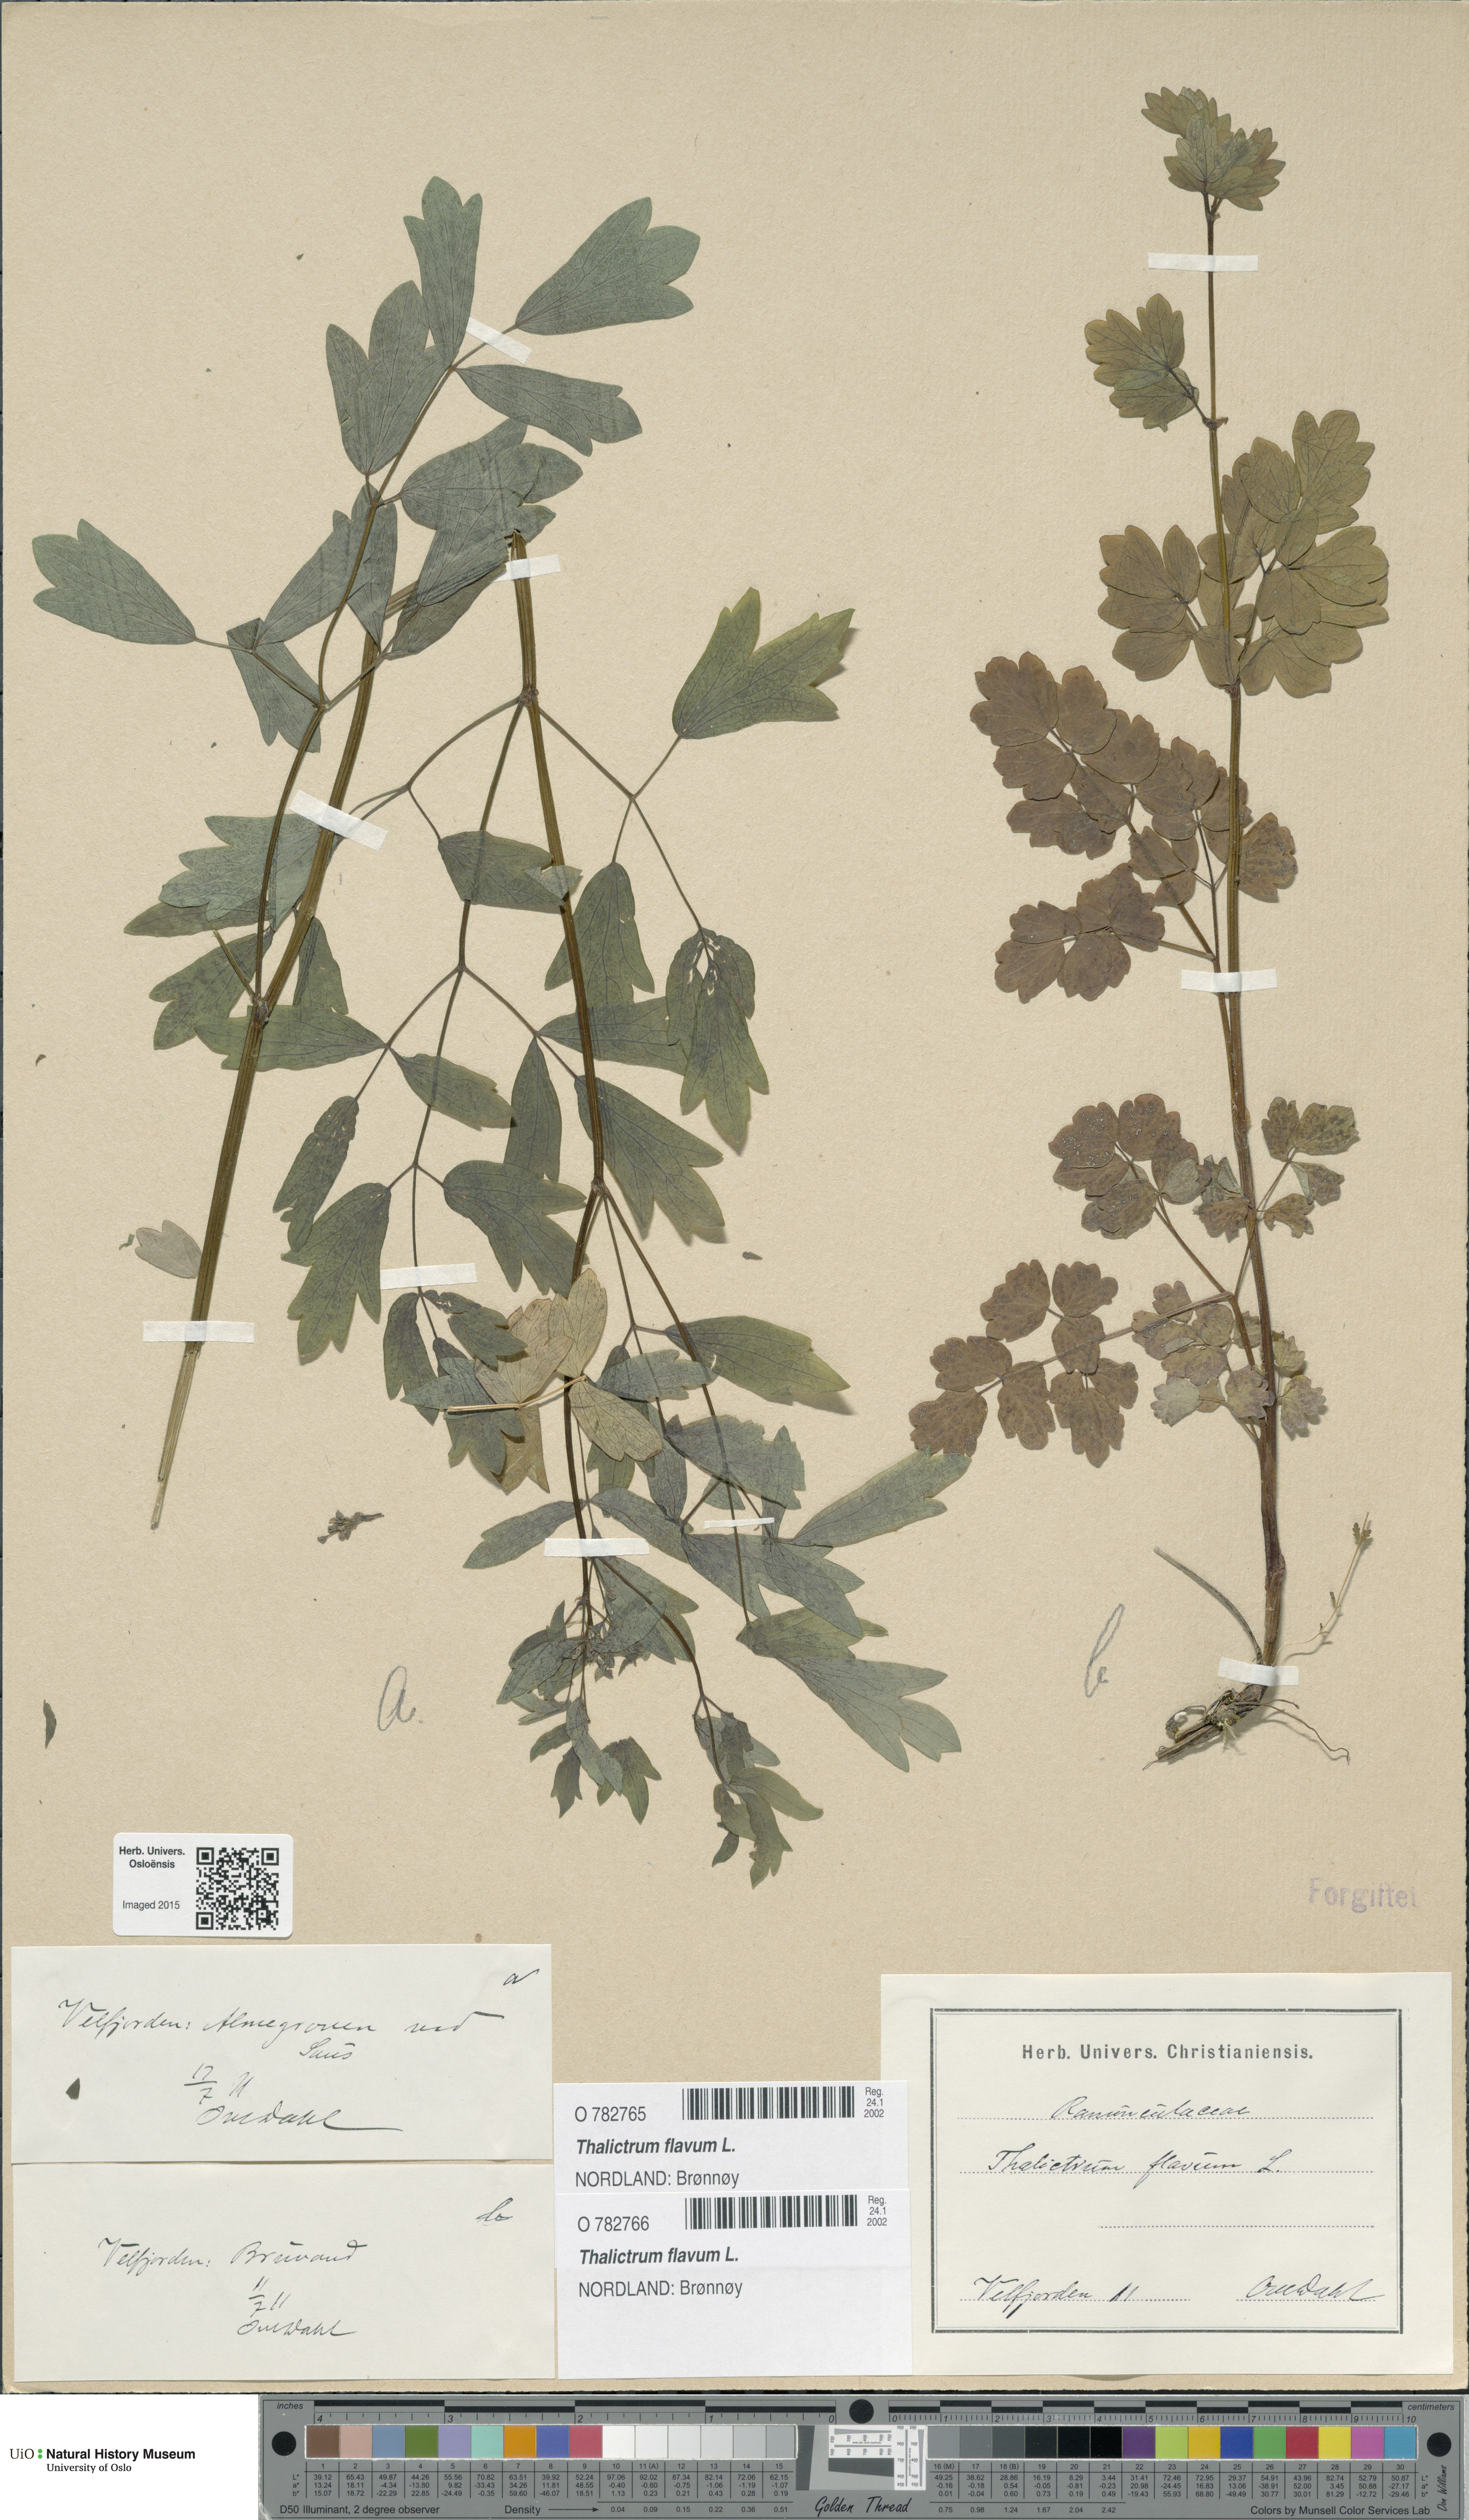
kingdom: Plantae
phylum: Tracheophyta
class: Magnoliopsida
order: Ranunculales
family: Ranunculaceae
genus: Thalictrum
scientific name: Thalictrum flavum
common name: Common meadow-rue
